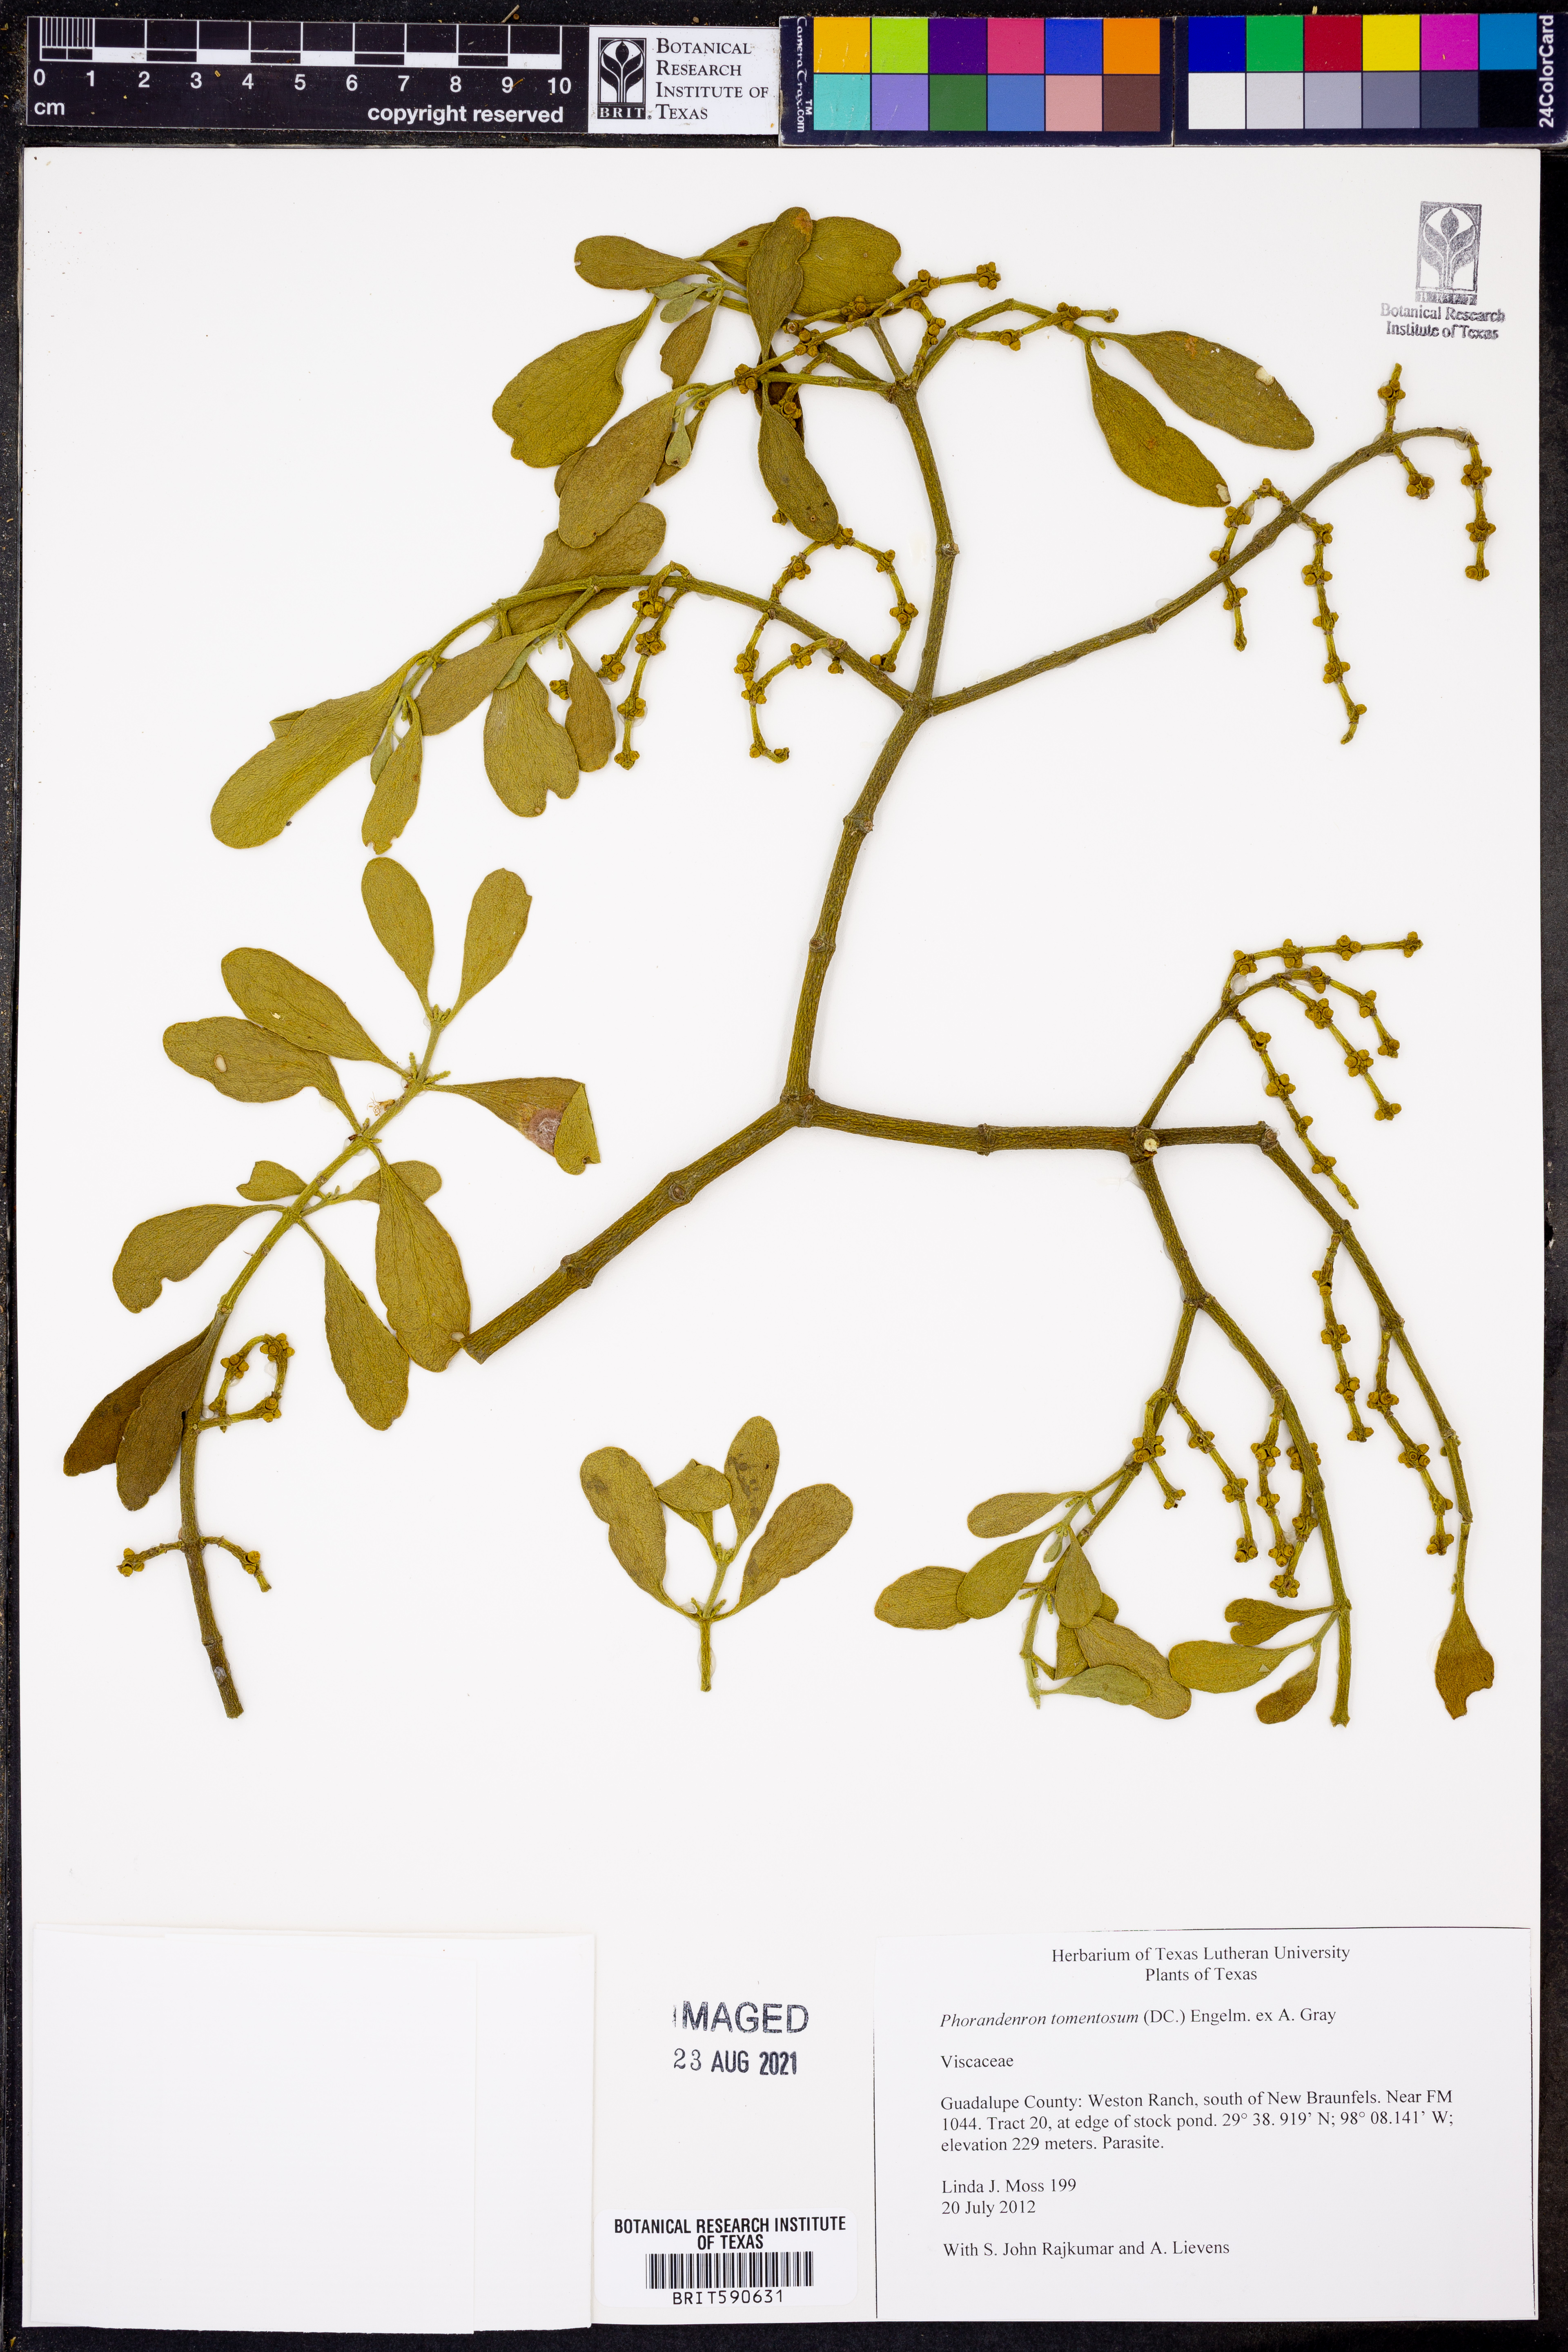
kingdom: Plantae
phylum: Tracheophyta
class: Magnoliopsida
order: Santalales
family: Viscaceae
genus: Phoradendron
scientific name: Phoradendron leucarpum
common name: Pacific mistletoe
